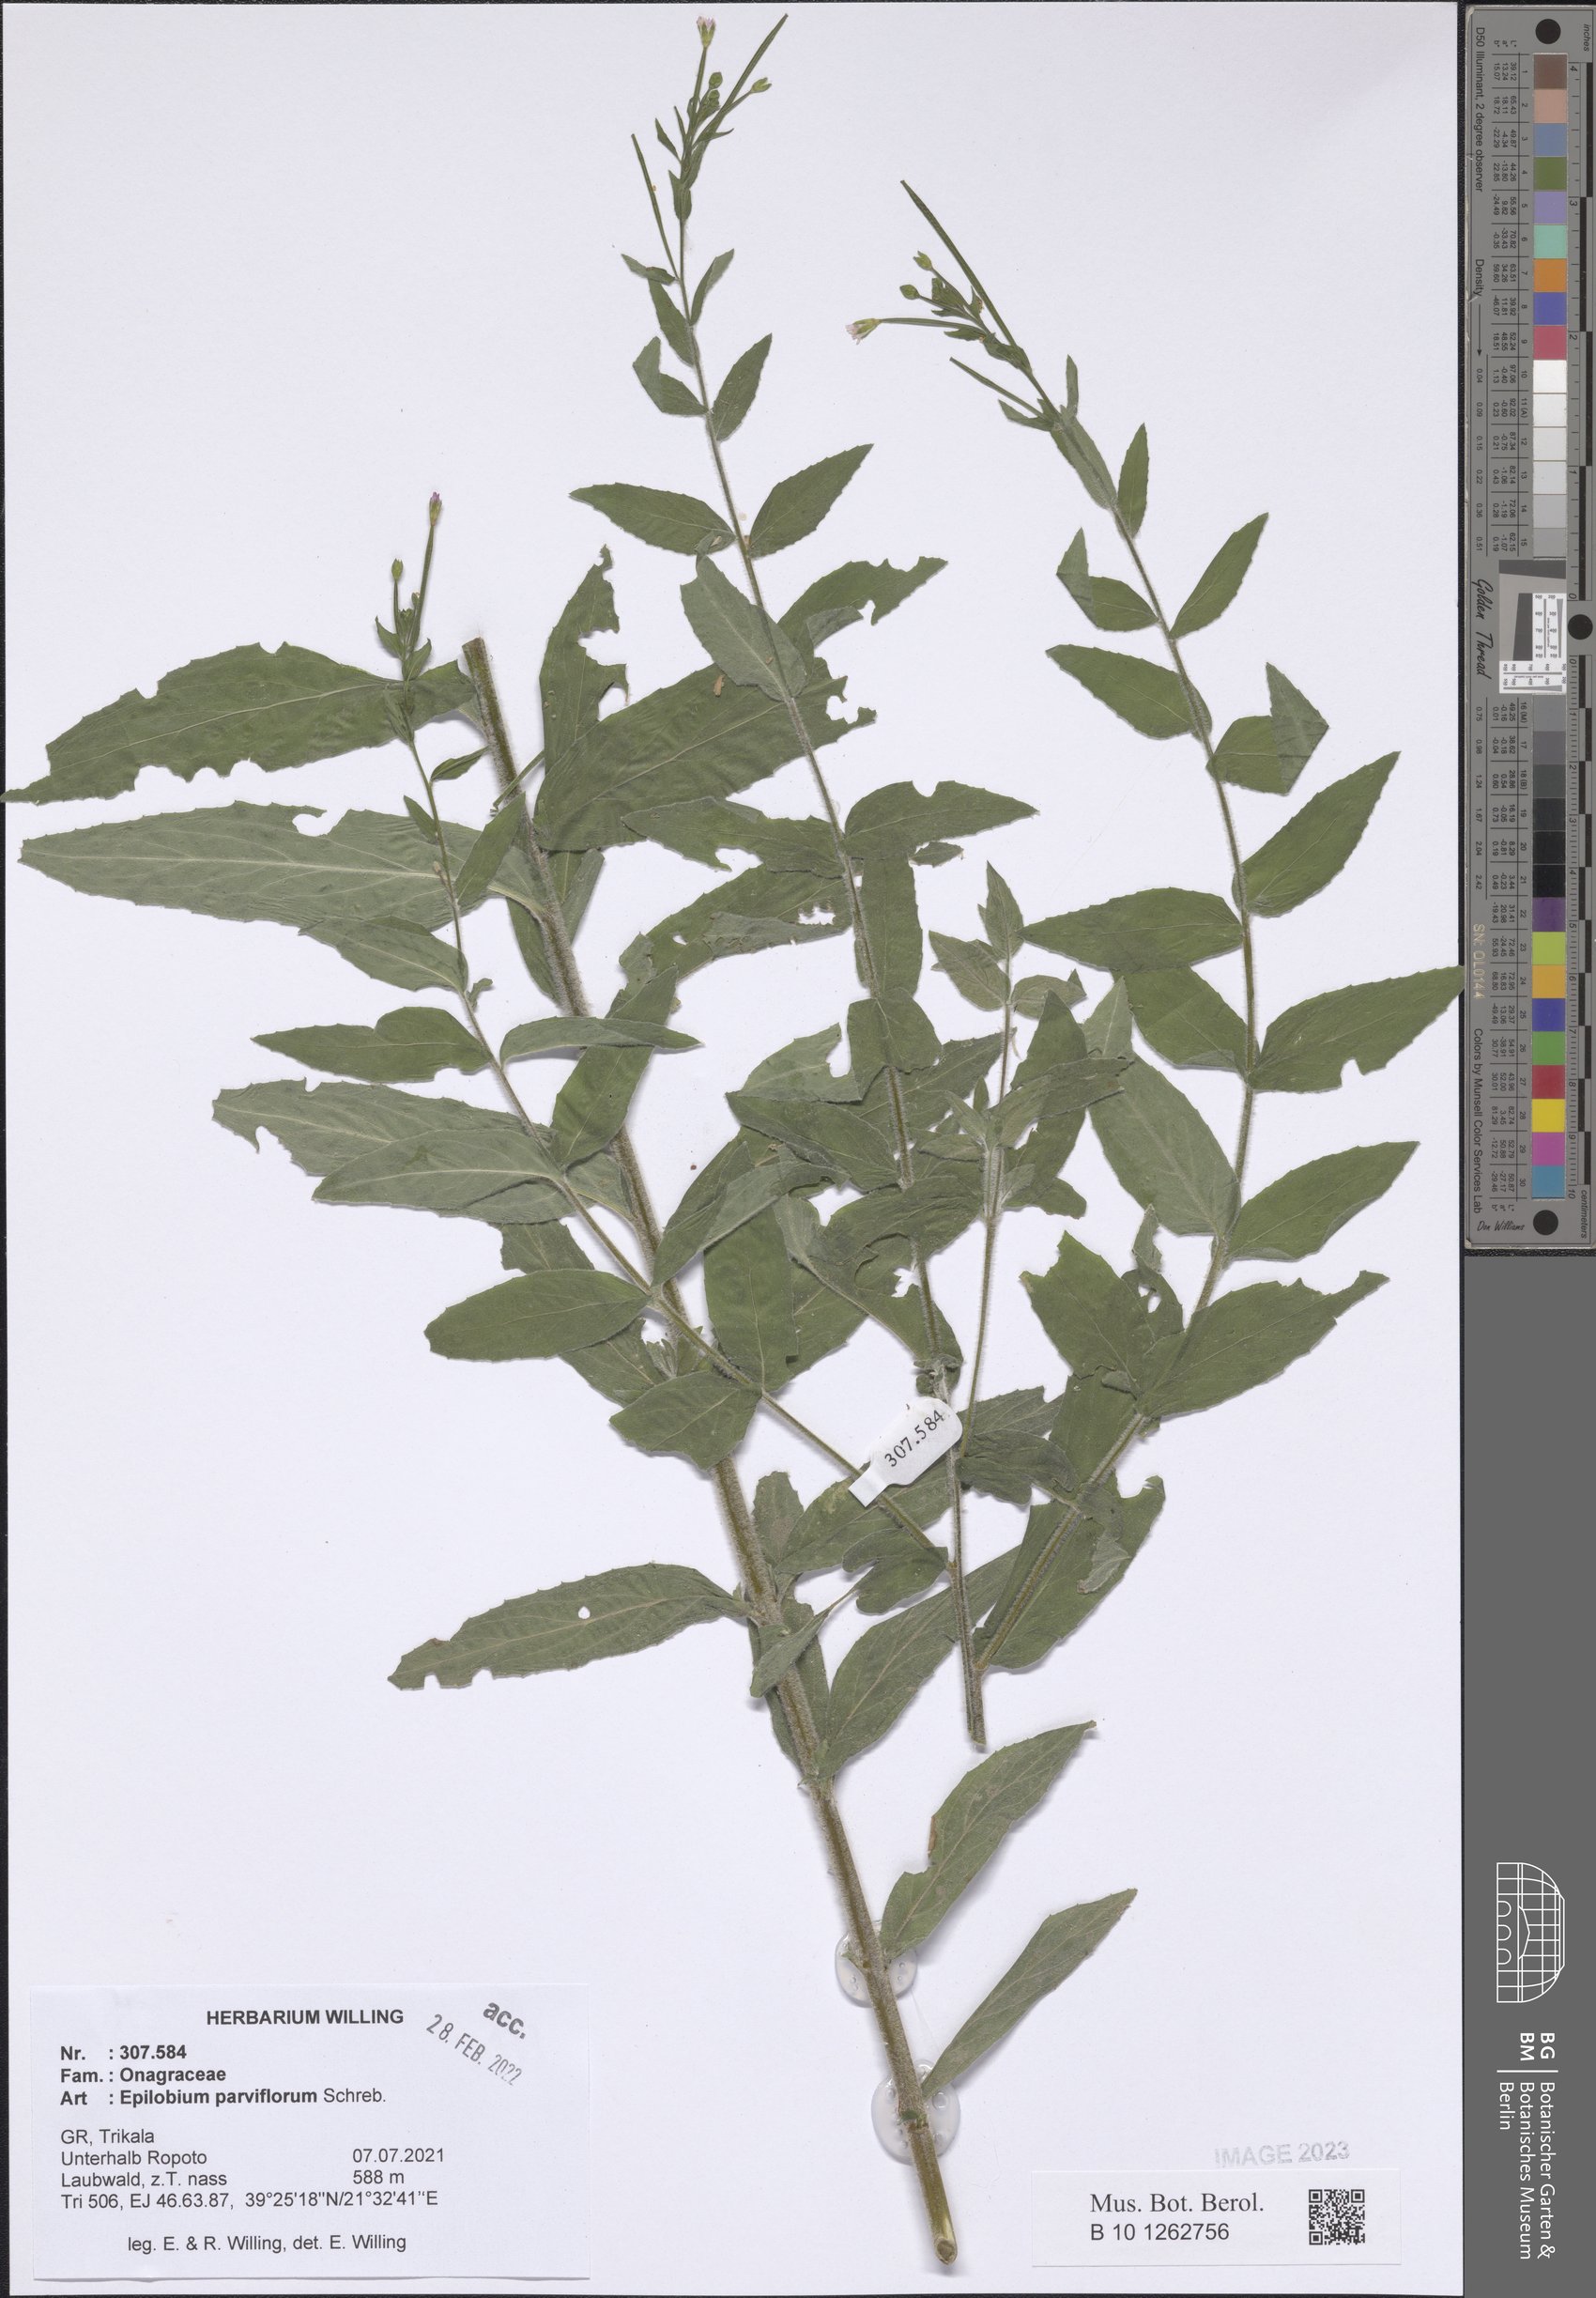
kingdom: Plantae
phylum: Tracheophyta
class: Magnoliopsida
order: Myrtales
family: Onagraceae
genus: Epilobium
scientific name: Epilobium parviflorum
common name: Hoary willowherb
